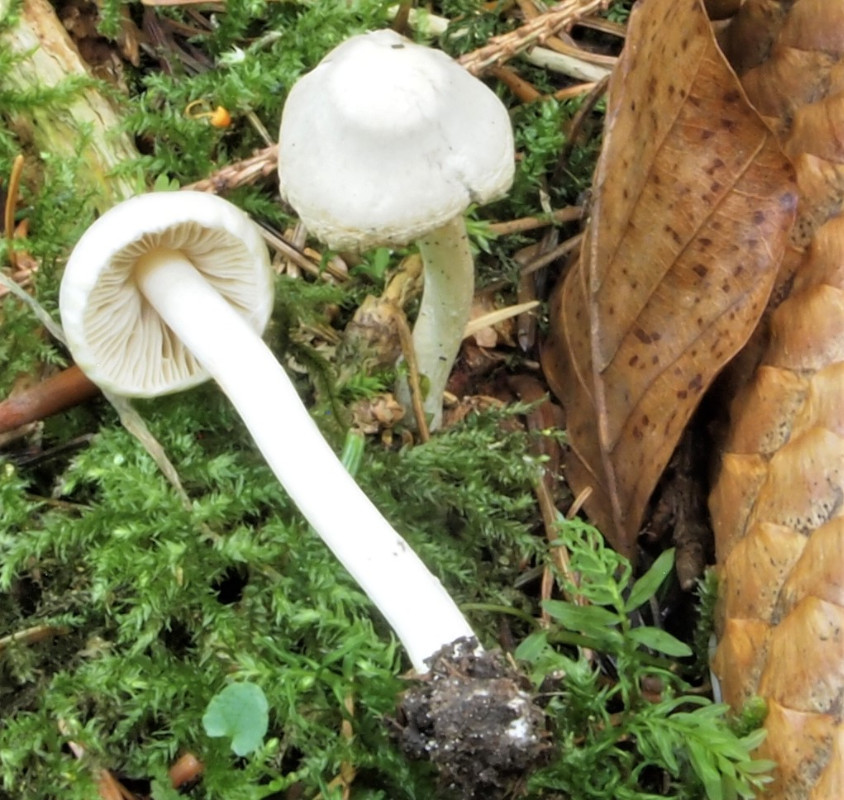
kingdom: Fungi
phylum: Basidiomycota
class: Agaricomycetes
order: Agaricales
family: Inocybaceae
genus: Inocybe
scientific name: Inocybe
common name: almindelig trævlhat
